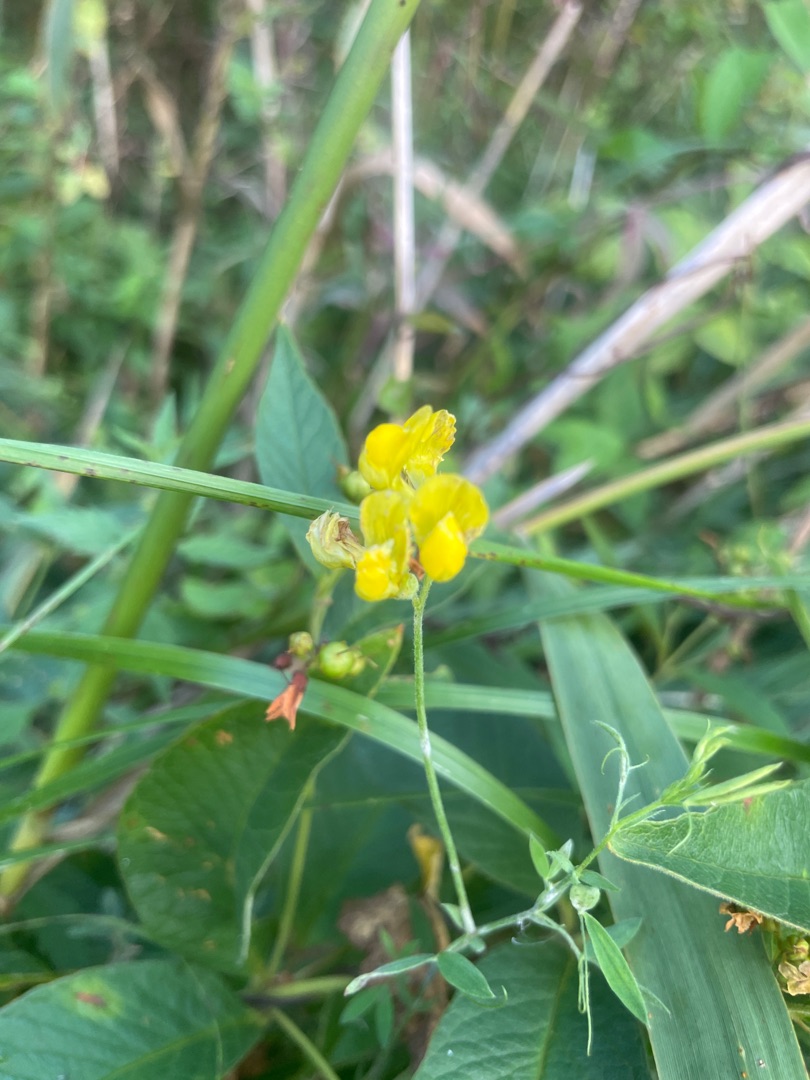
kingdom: Plantae
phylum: Tracheophyta
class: Magnoliopsida
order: Fabales
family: Fabaceae
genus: Lathyrus
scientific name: Lathyrus pratensis
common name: Gul fladbælg
